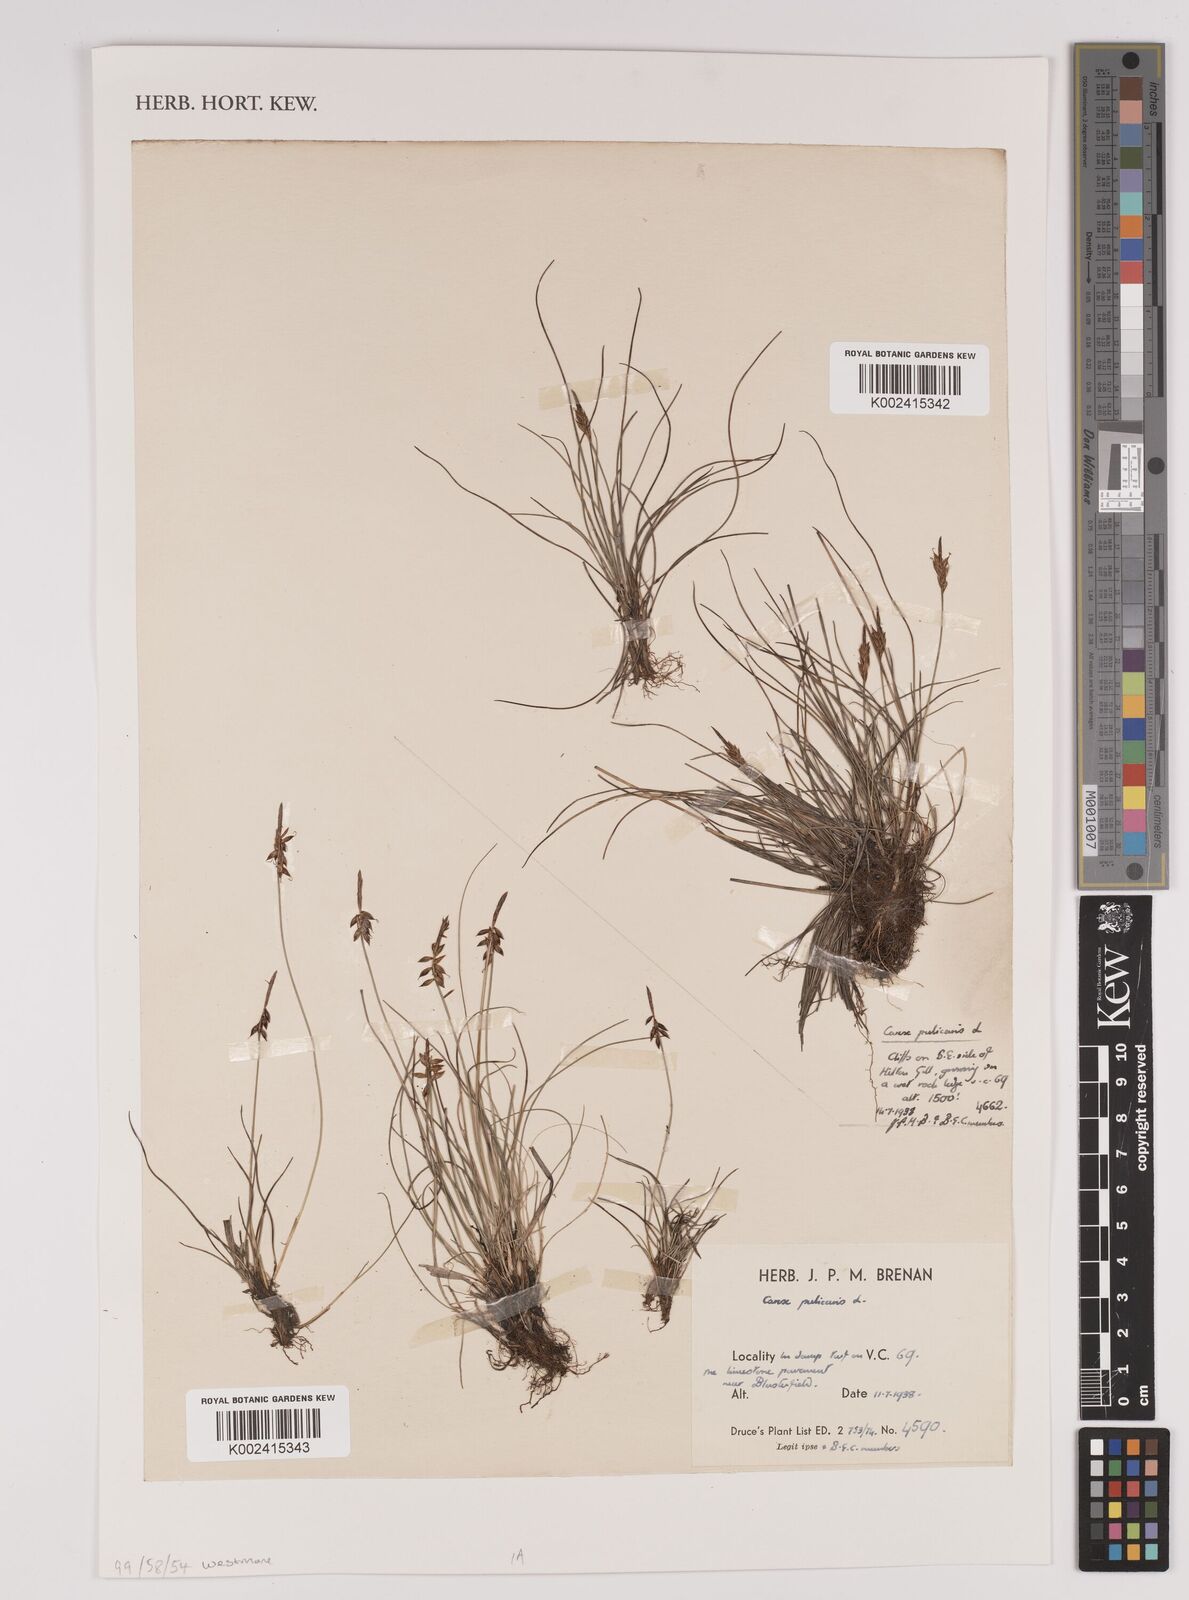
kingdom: Plantae
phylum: Tracheophyta
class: Liliopsida
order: Poales
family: Cyperaceae
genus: Carex
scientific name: Carex pulicaris
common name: Flea sedge
